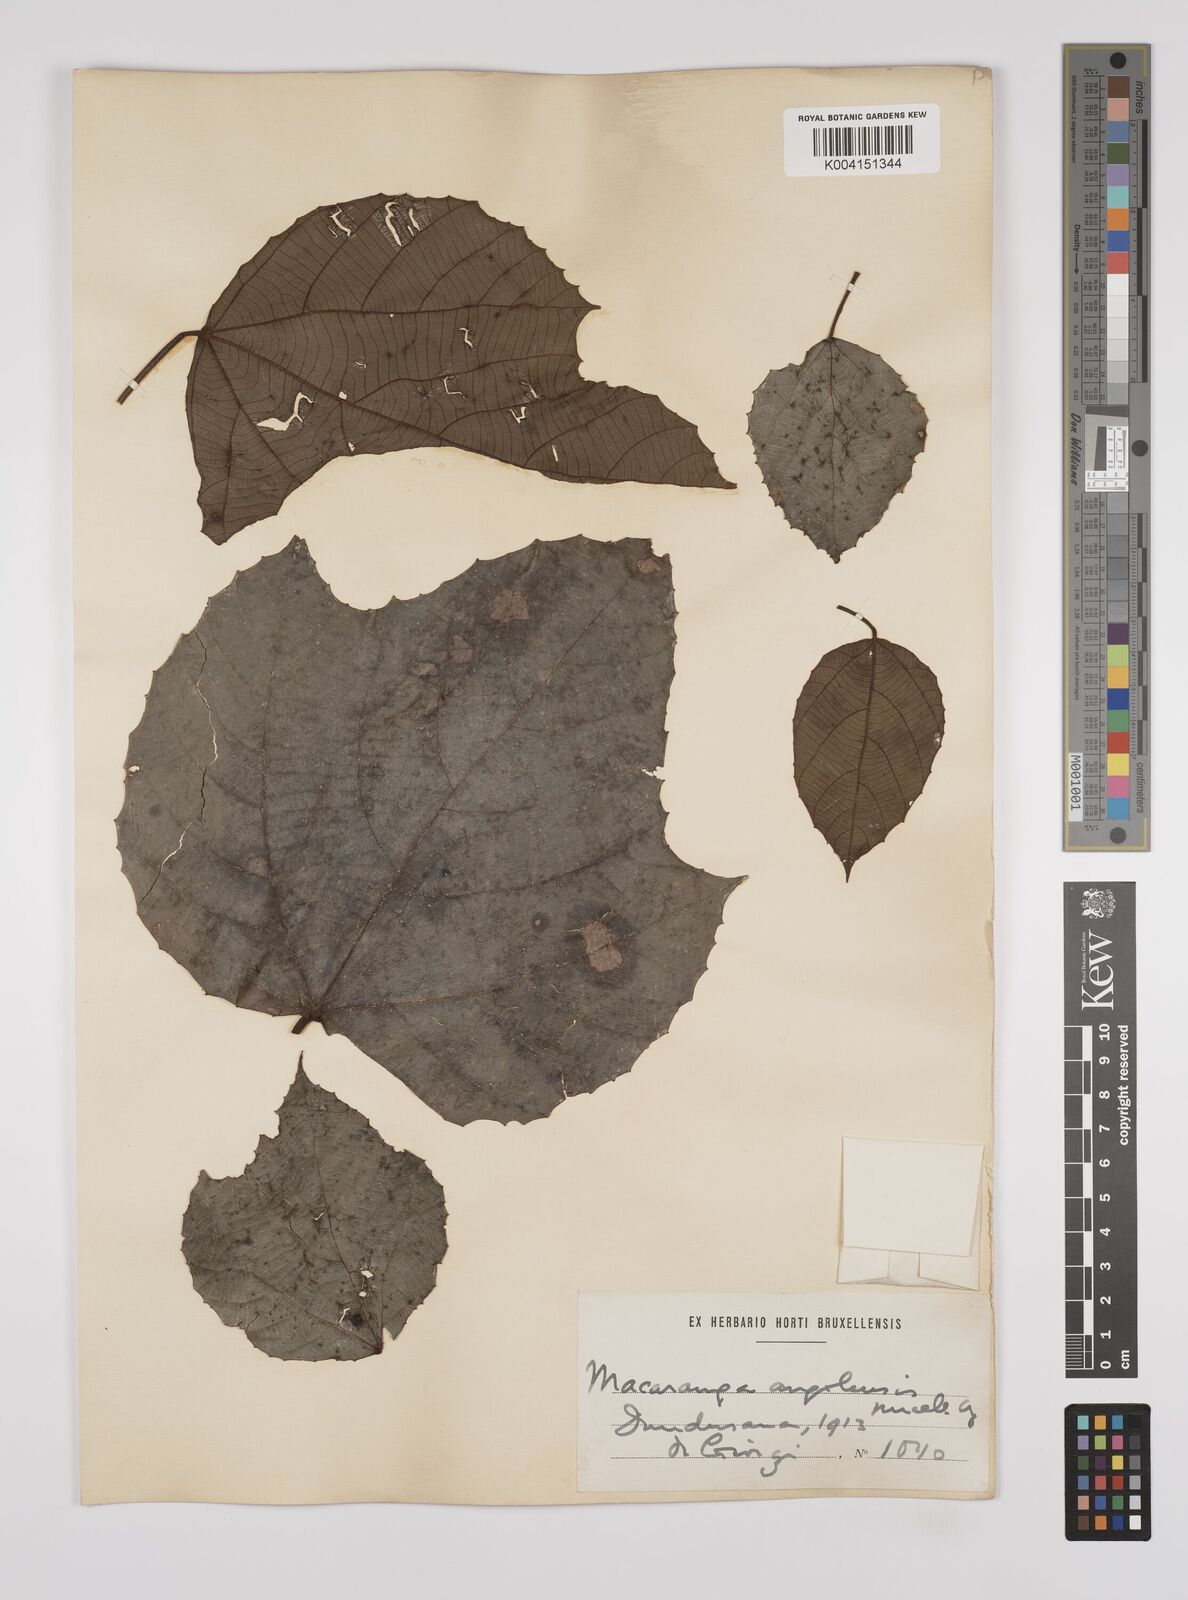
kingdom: Plantae
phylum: Tracheophyta
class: Magnoliopsida
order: Malpighiales
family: Euphorbiaceae
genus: Macaranga
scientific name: Macaranga angolensis
